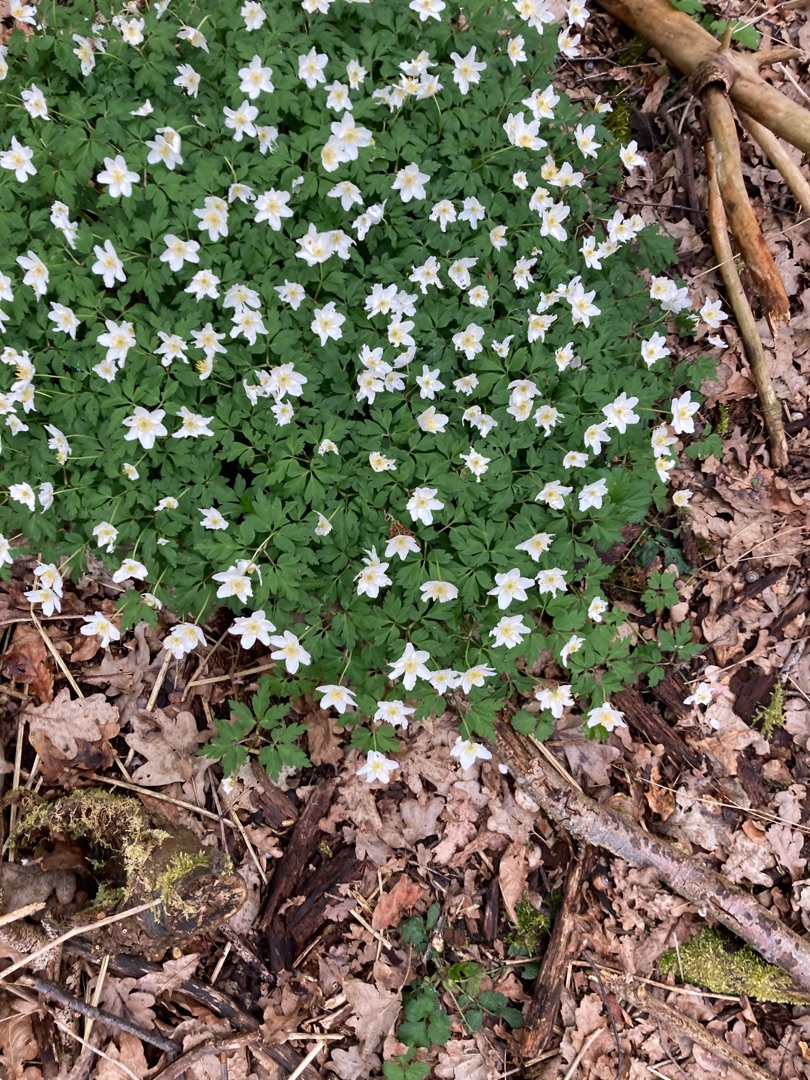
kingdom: Plantae
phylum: Tracheophyta
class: Magnoliopsida
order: Ranunculales
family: Ranunculaceae
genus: Anemone
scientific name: Anemone nemorosa
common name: Hvid anemone
